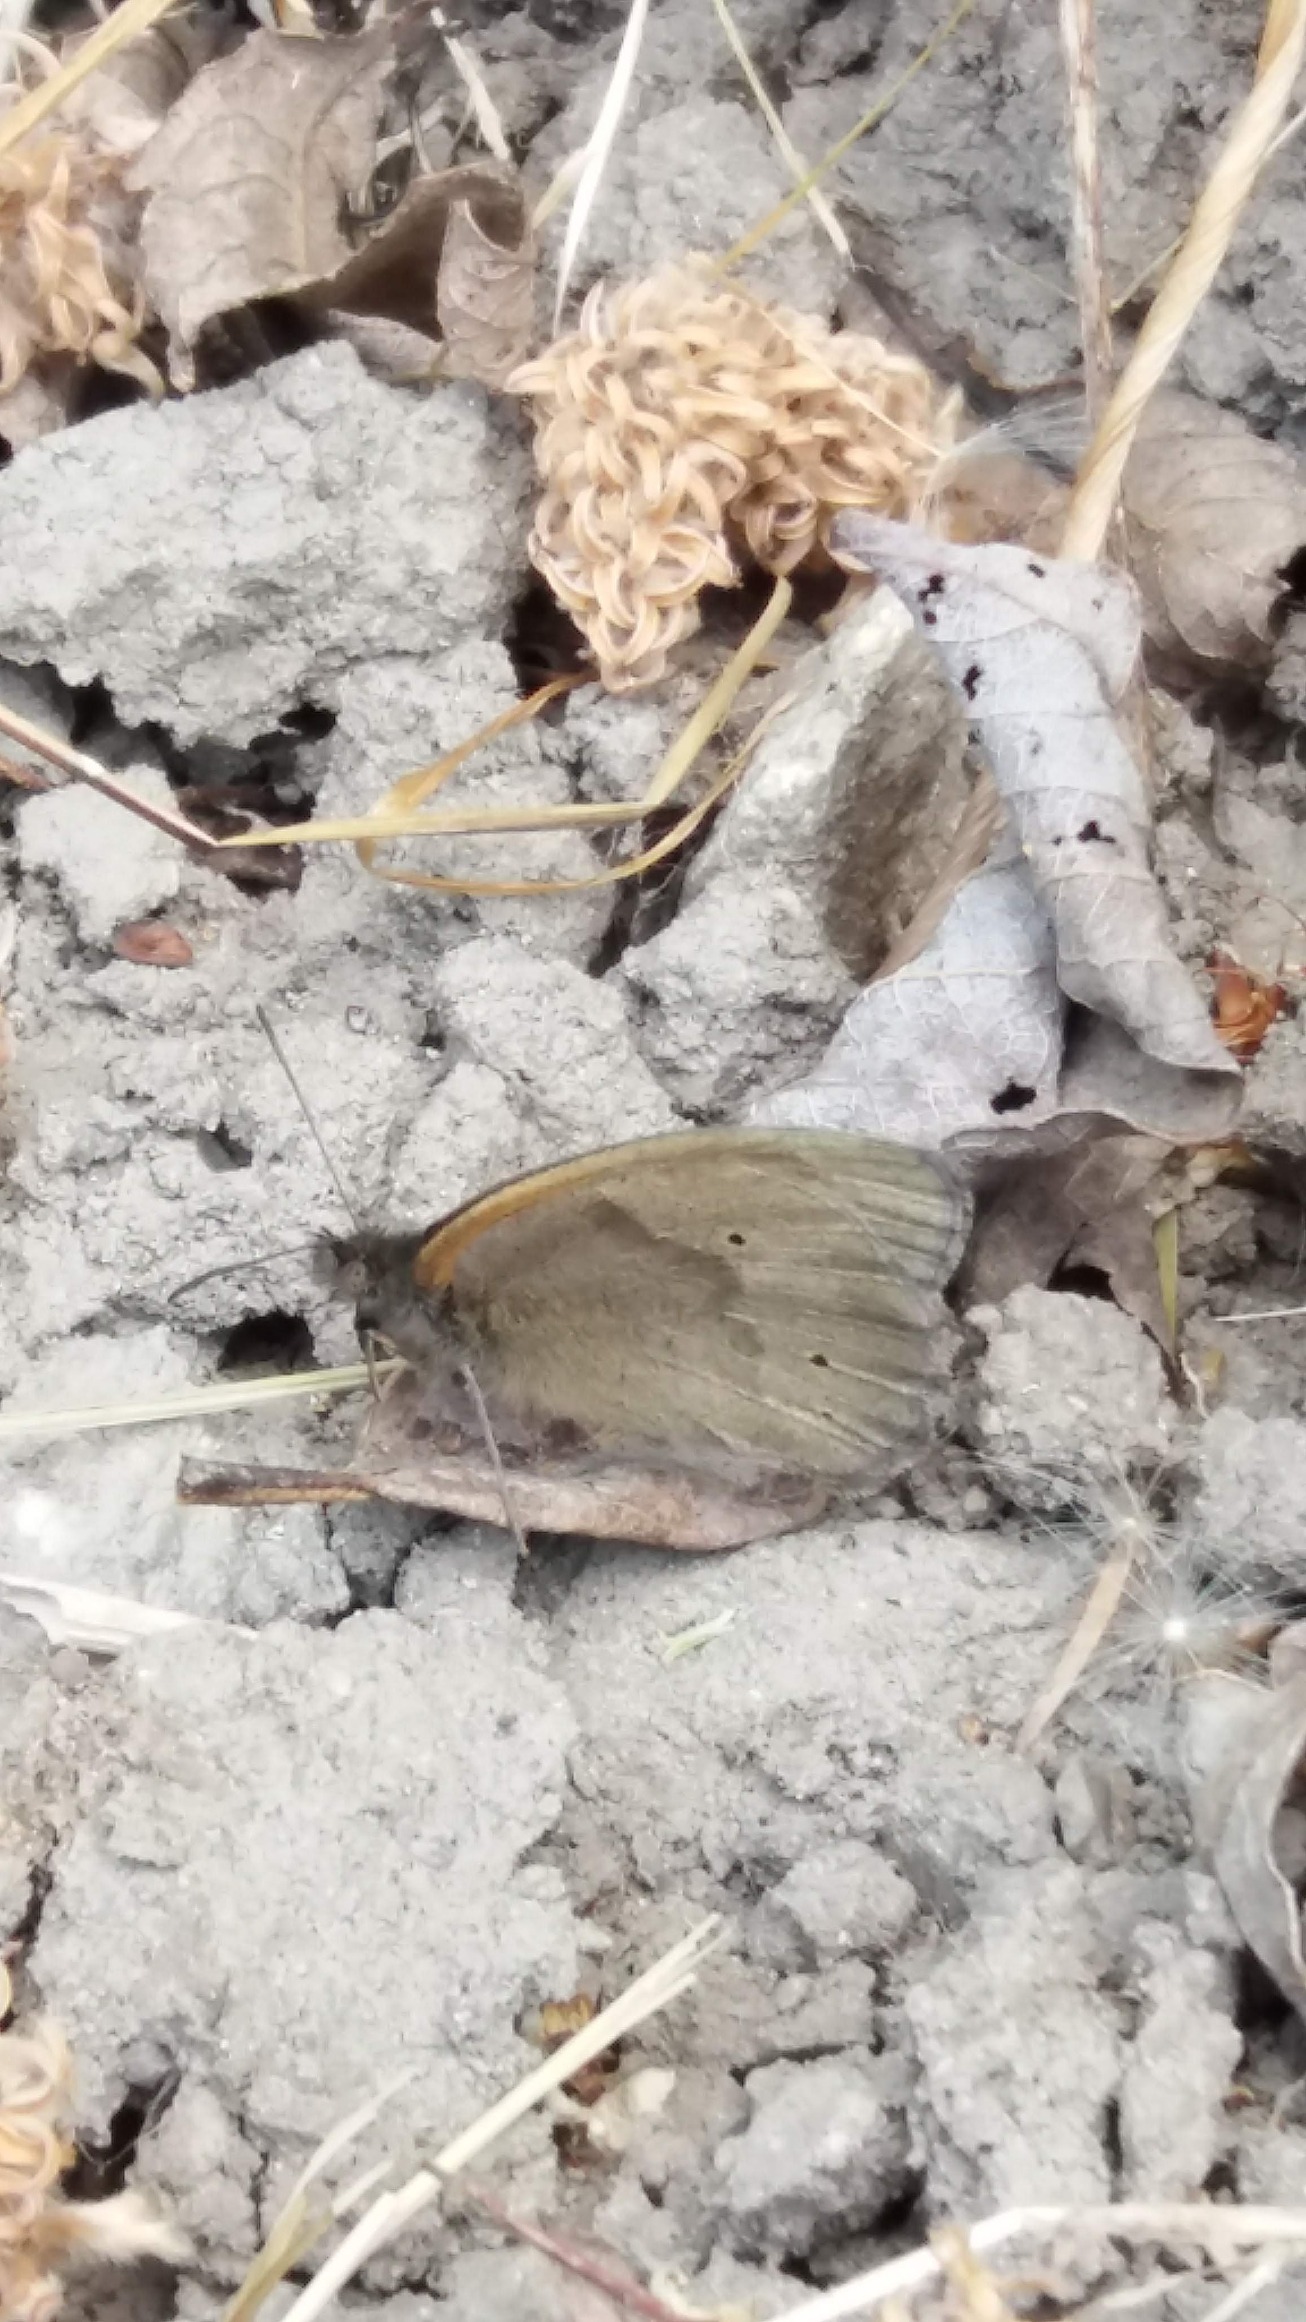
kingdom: Animalia
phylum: Arthropoda
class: Insecta
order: Lepidoptera
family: Nymphalidae
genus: Maniola
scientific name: Maniola jurtina
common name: Græsrandøje
